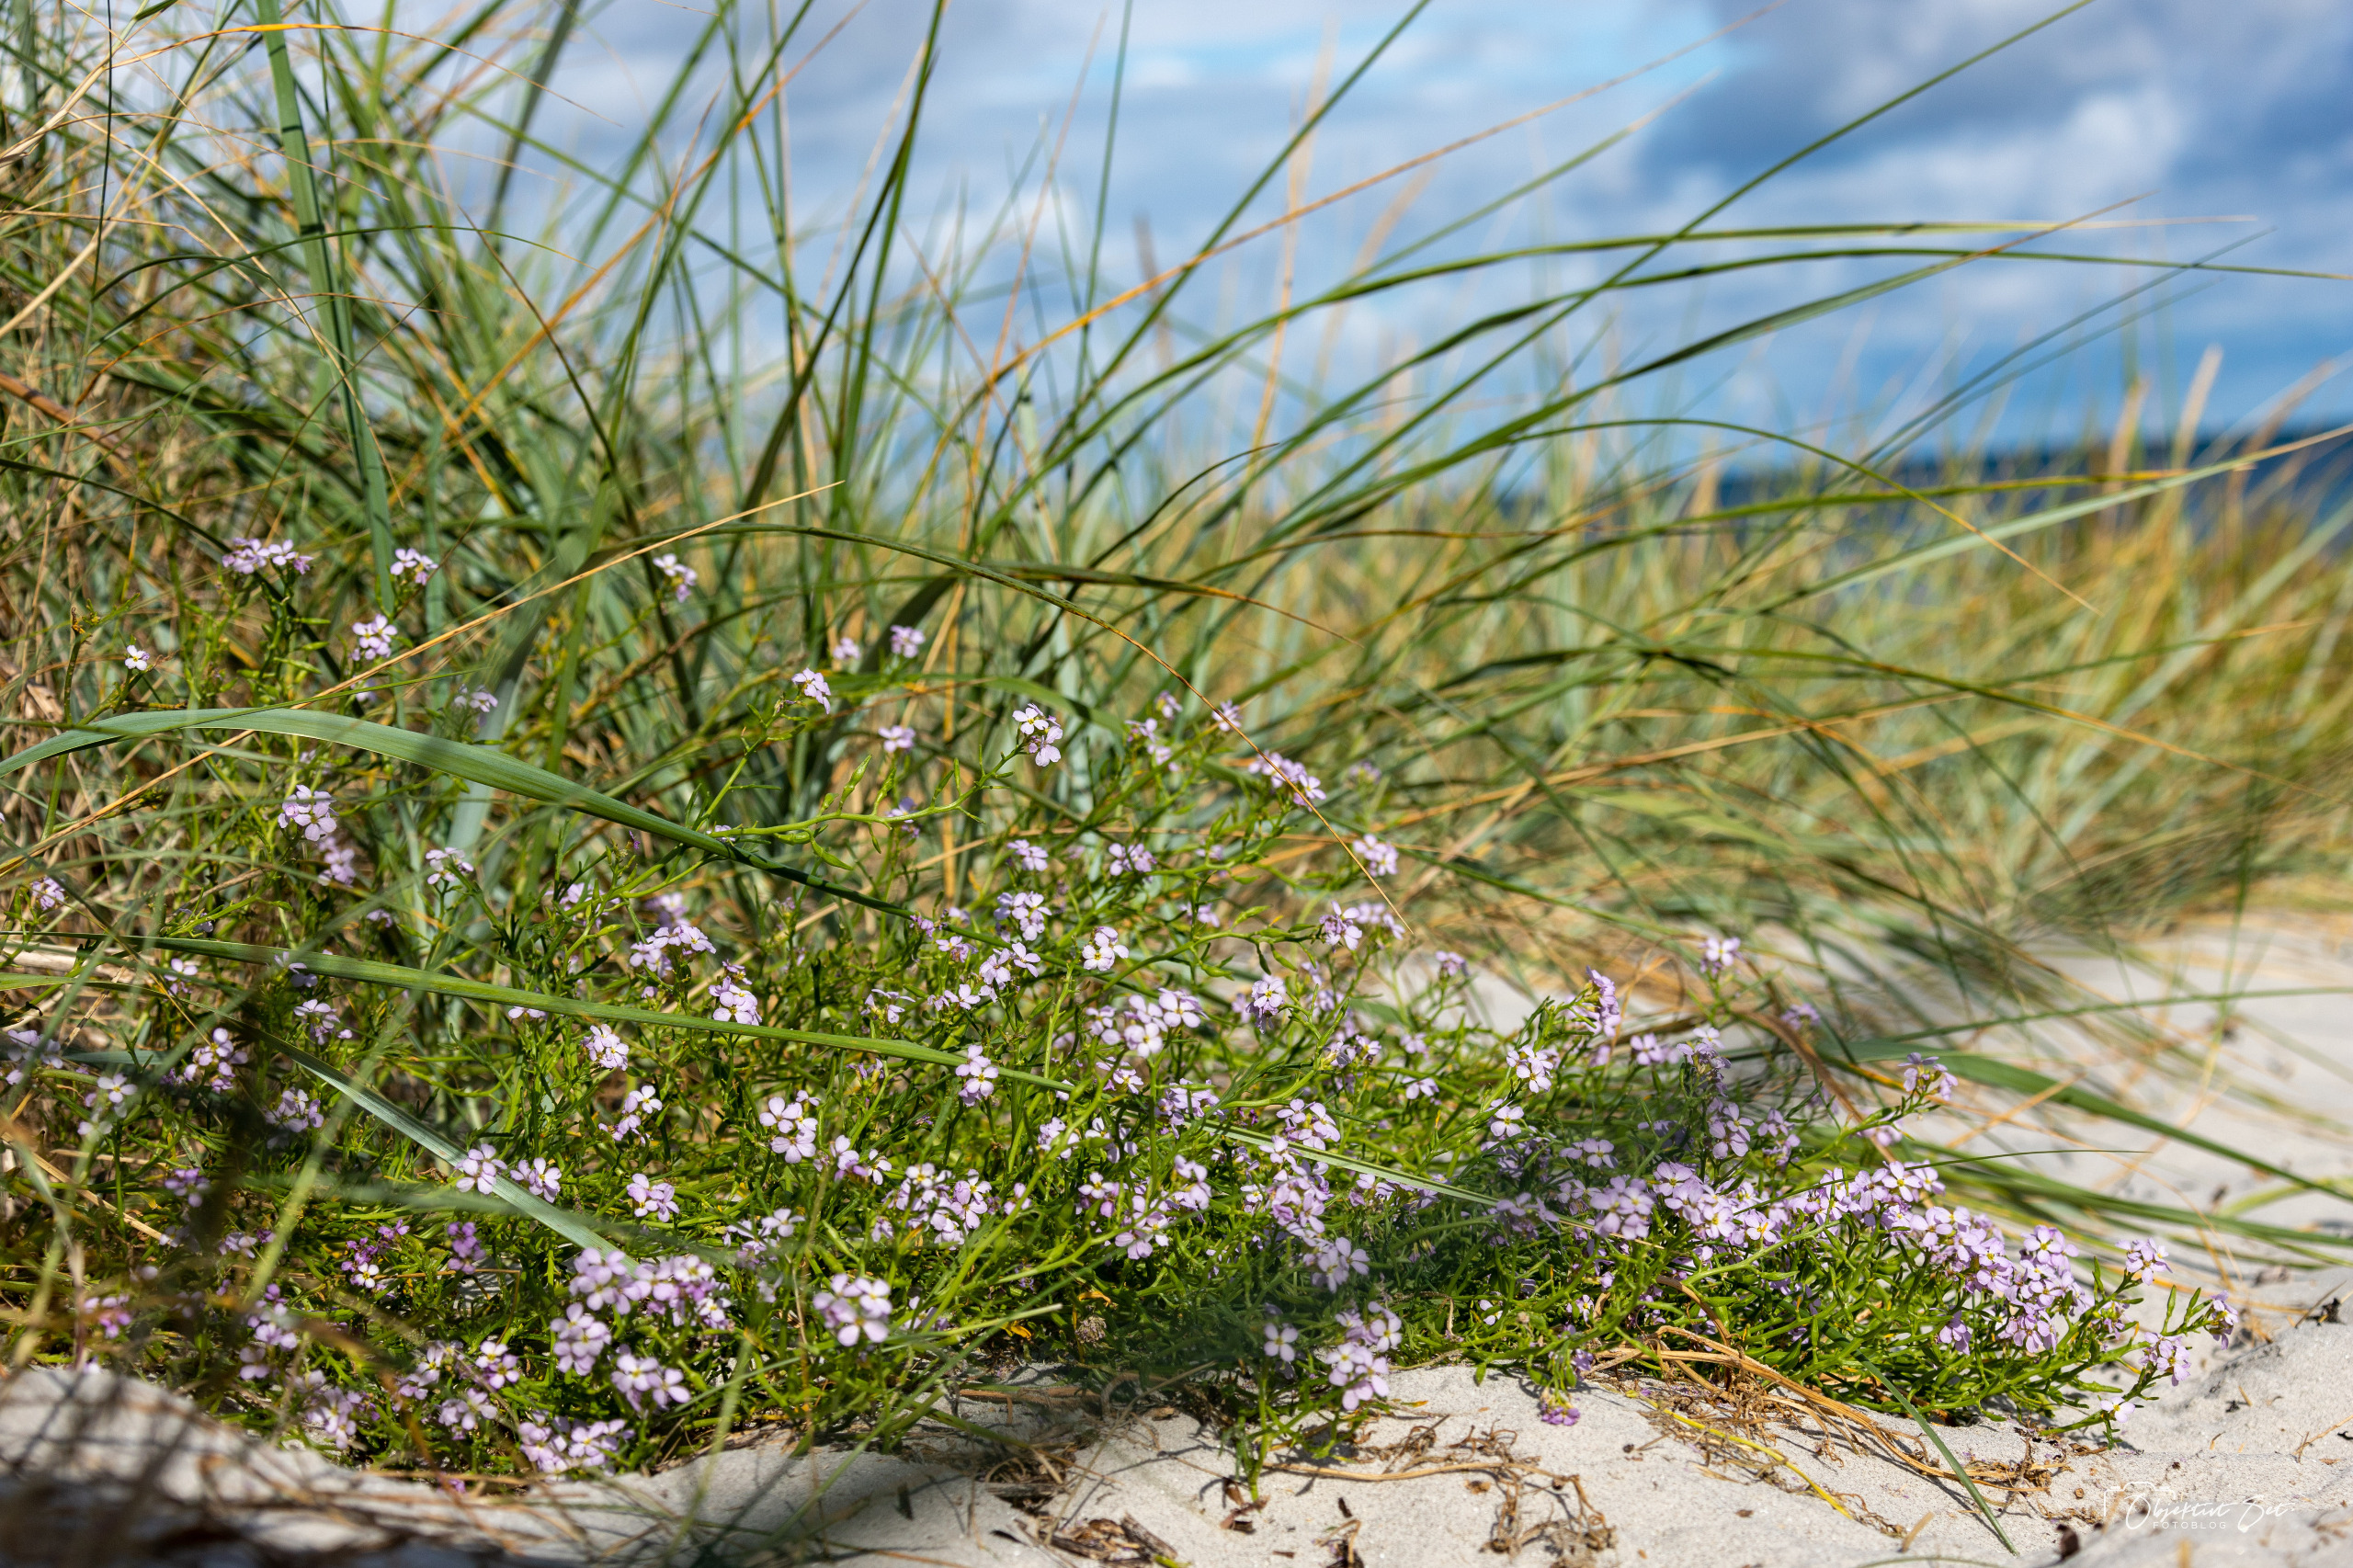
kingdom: Plantae
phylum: Tracheophyta
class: Magnoliopsida
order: Brassicales
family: Brassicaceae
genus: Cakile
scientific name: Cakile maritima
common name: Strandsennep
